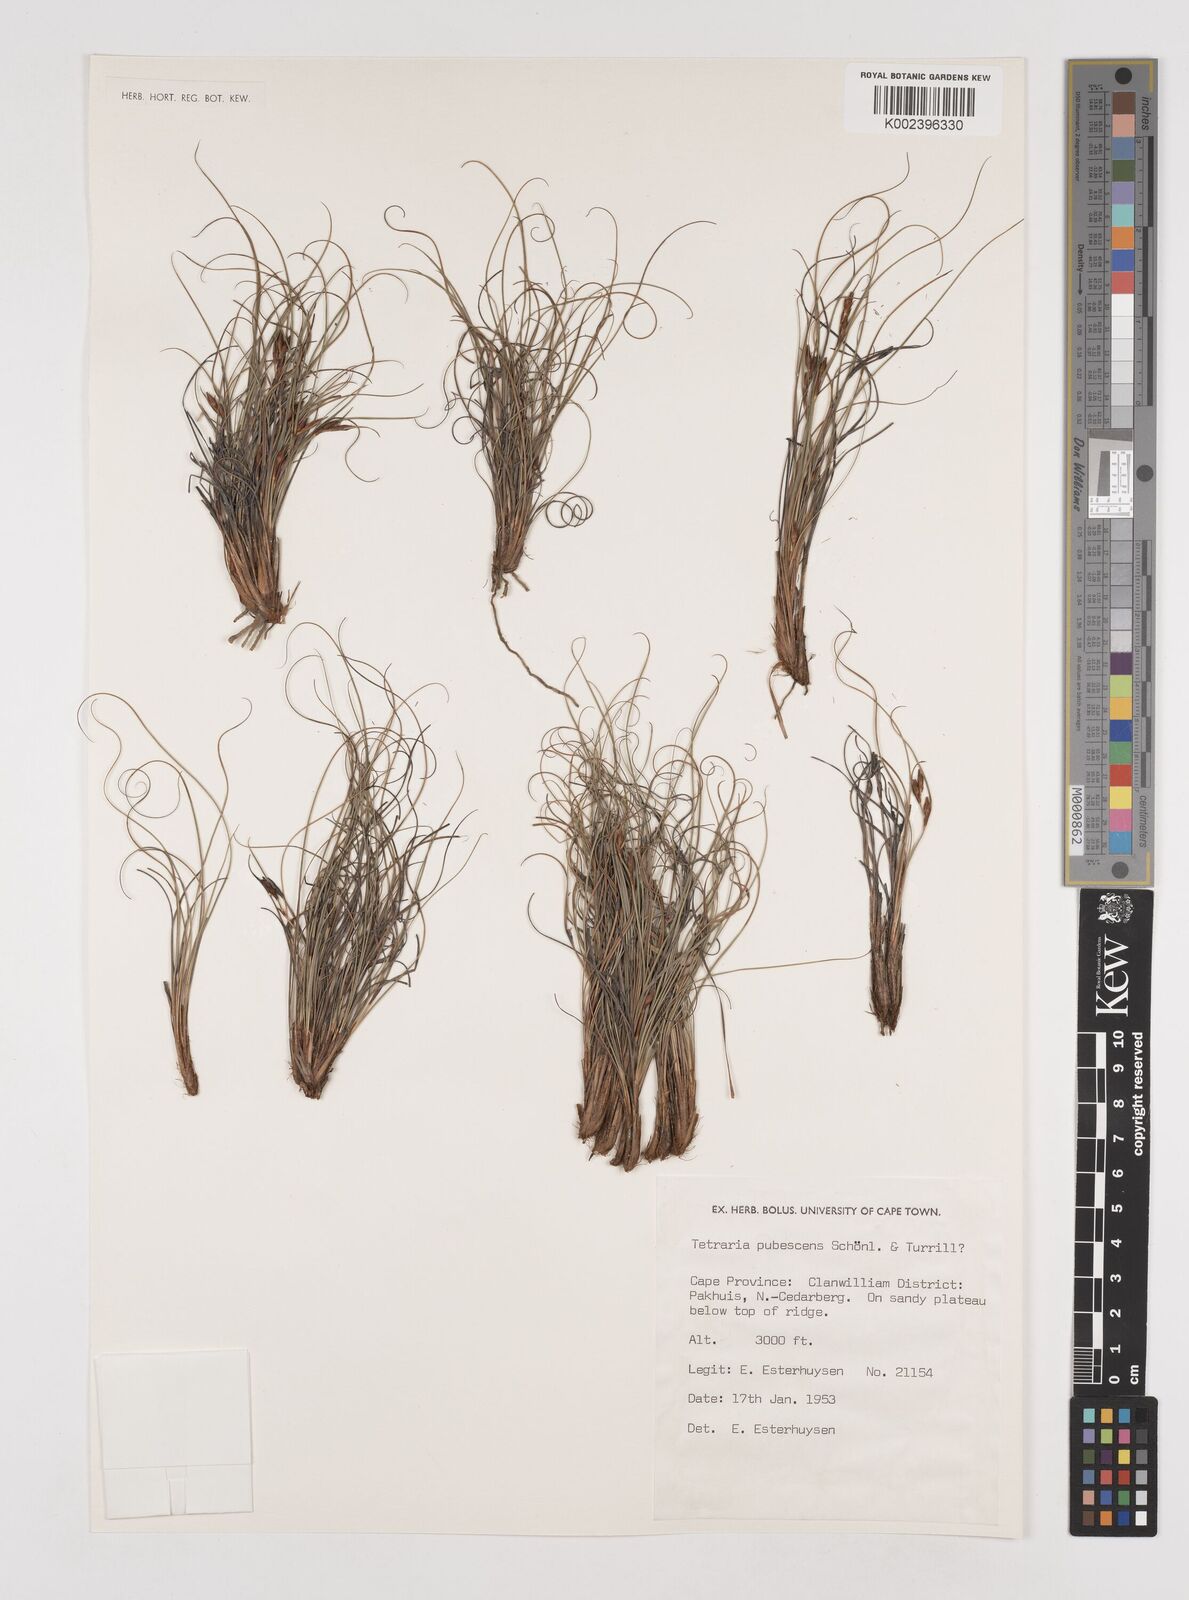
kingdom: Plantae
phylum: Tracheophyta
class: Liliopsida
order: Poales
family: Cyperaceae
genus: Tetraria
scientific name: Tetraria pubescens
